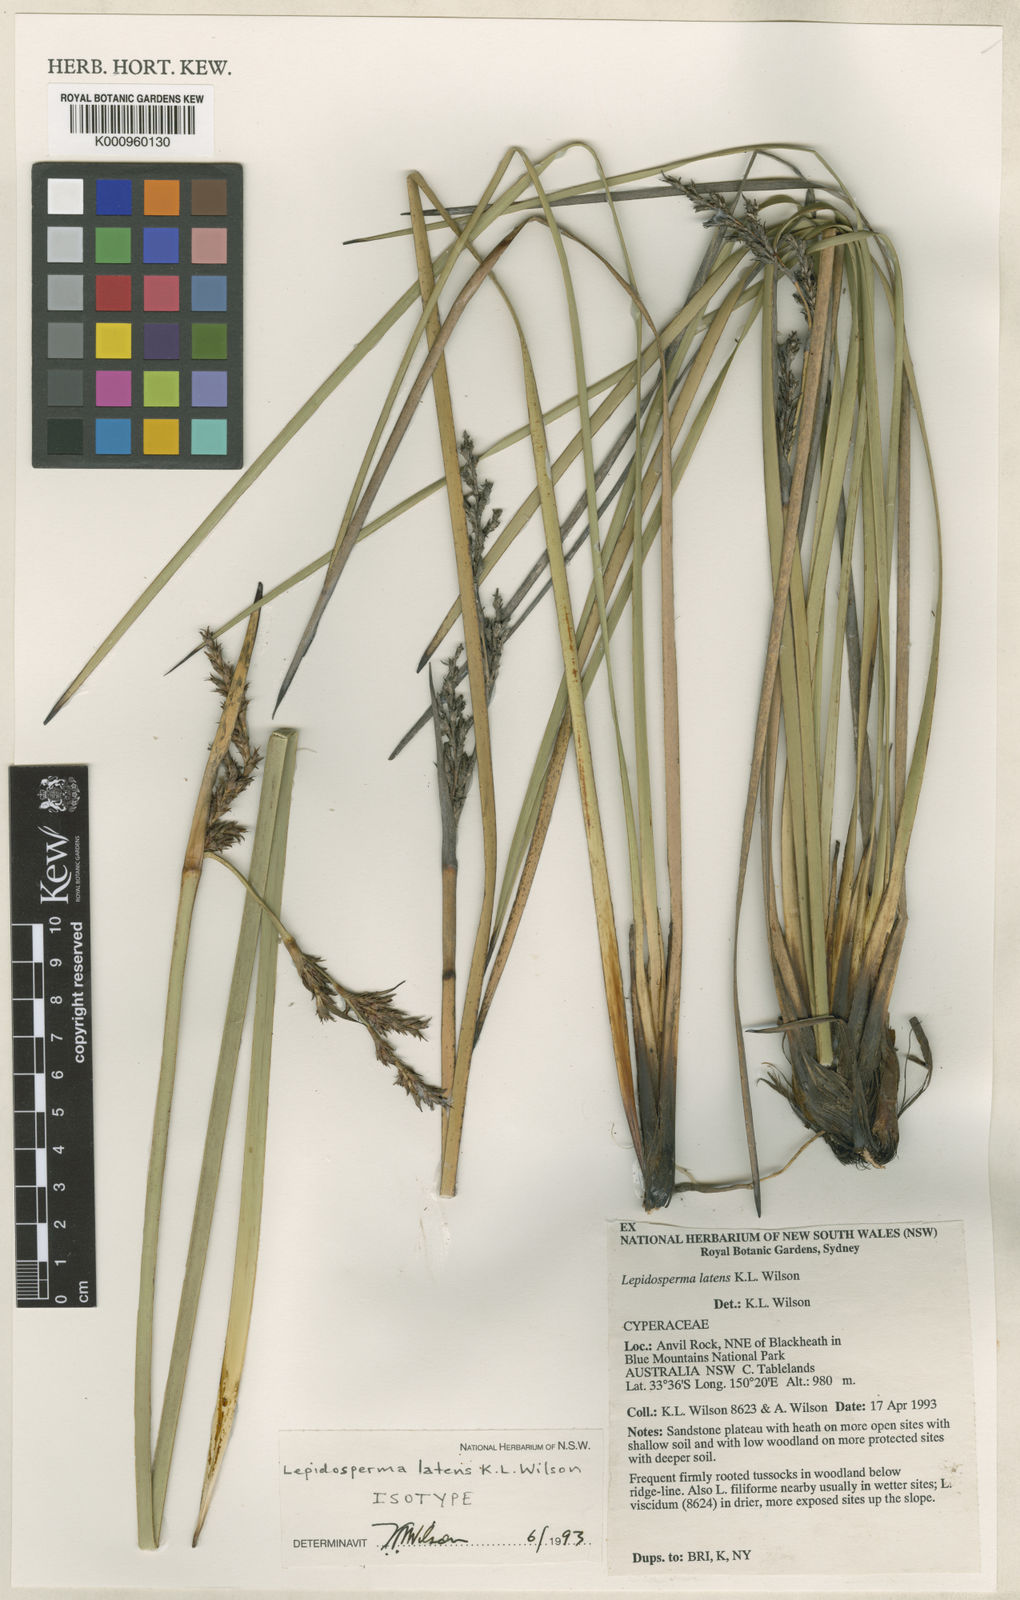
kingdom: Plantae
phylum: Tracheophyta
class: Liliopsida
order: Poales
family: Cyperaceae
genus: Lepidosperma
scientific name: Lepidosperma latens
